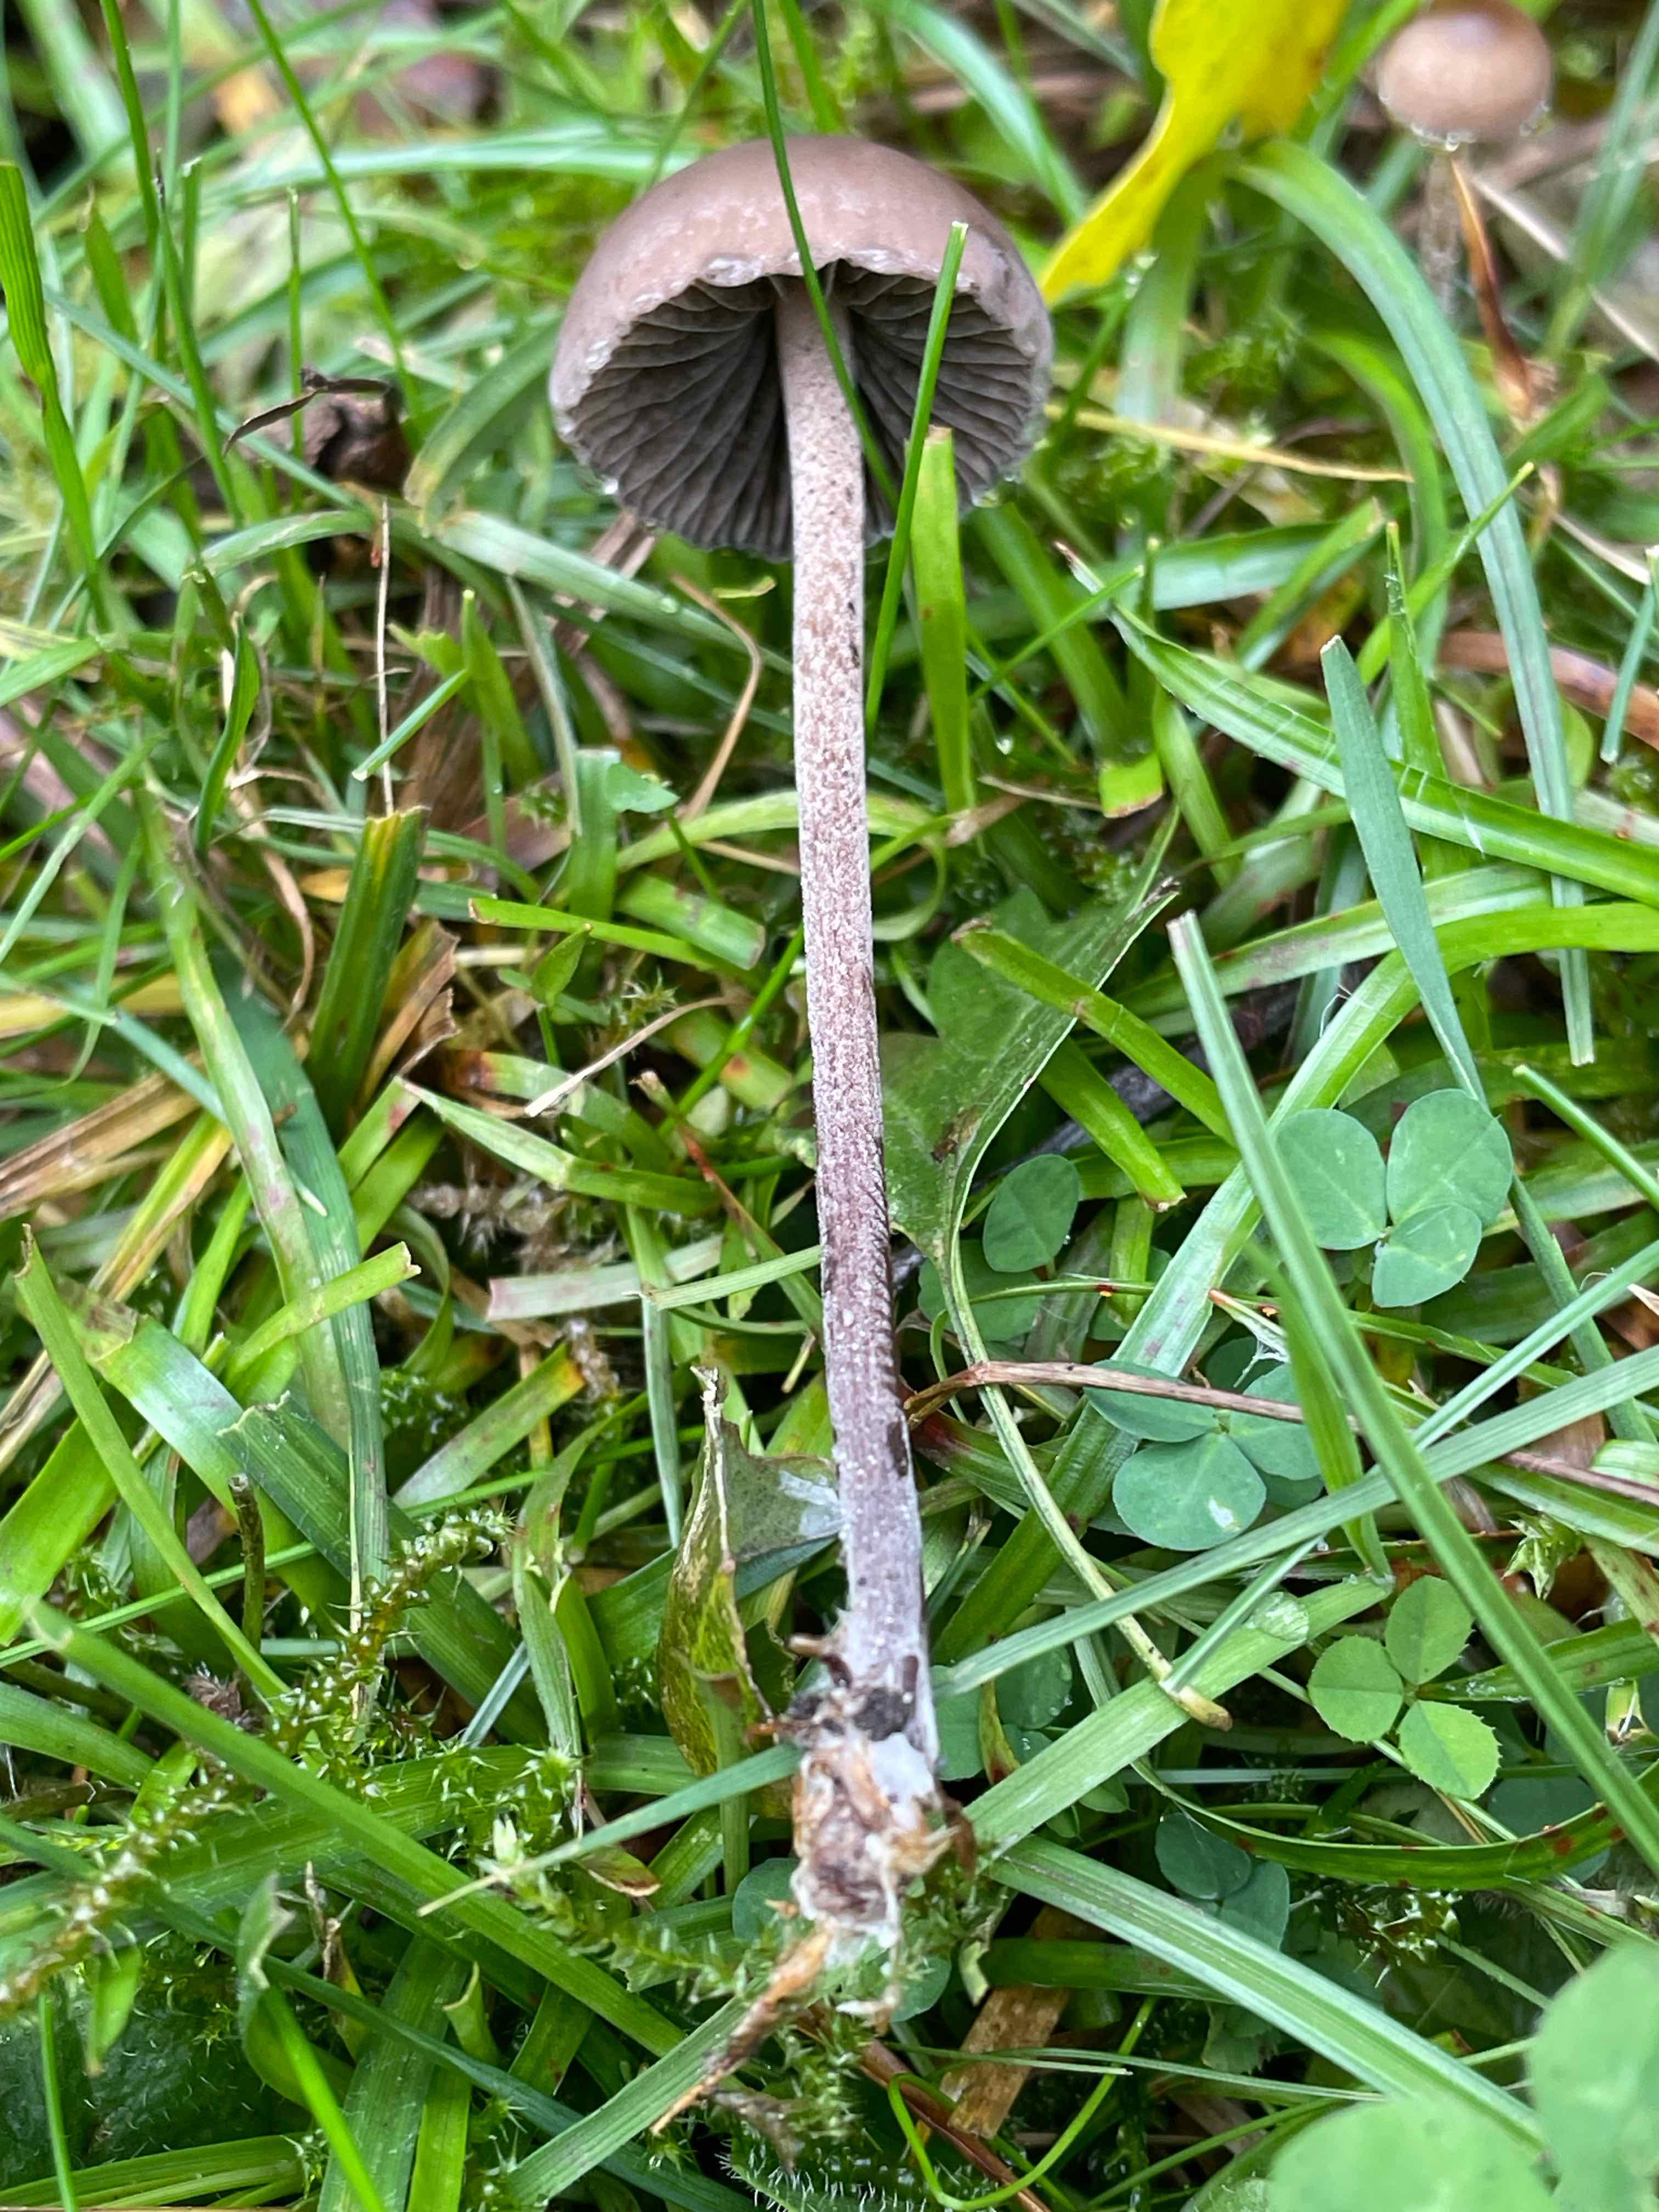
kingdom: Fungi
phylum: Basidiomycota
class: Agaricomycetes
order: Agaricales
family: Bolbitiaceae
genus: Panaeolus
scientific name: Panaeolus acuminatus
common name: høj glanshat
